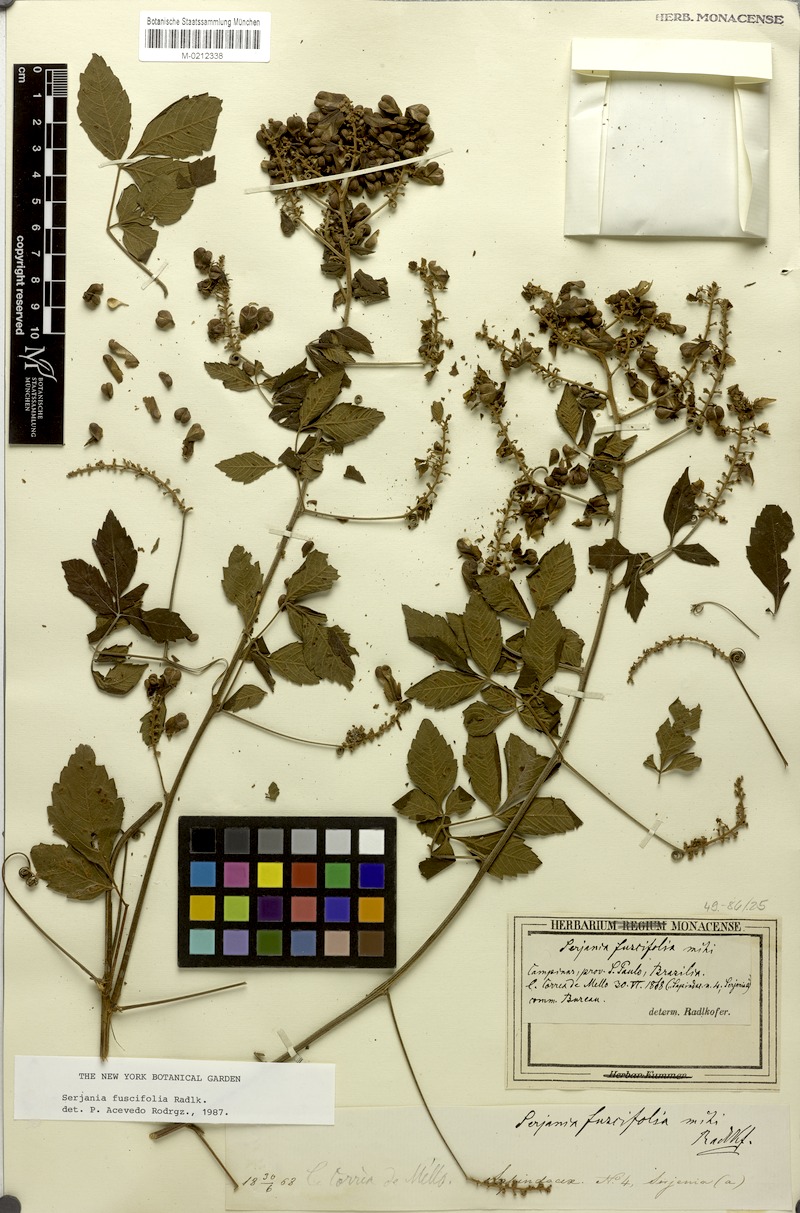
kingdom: Plantae
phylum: Tracheophyta
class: Magnoliopsida
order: Sapindales
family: Sapindaceae
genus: Serjania
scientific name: Serjania fuscifolia
